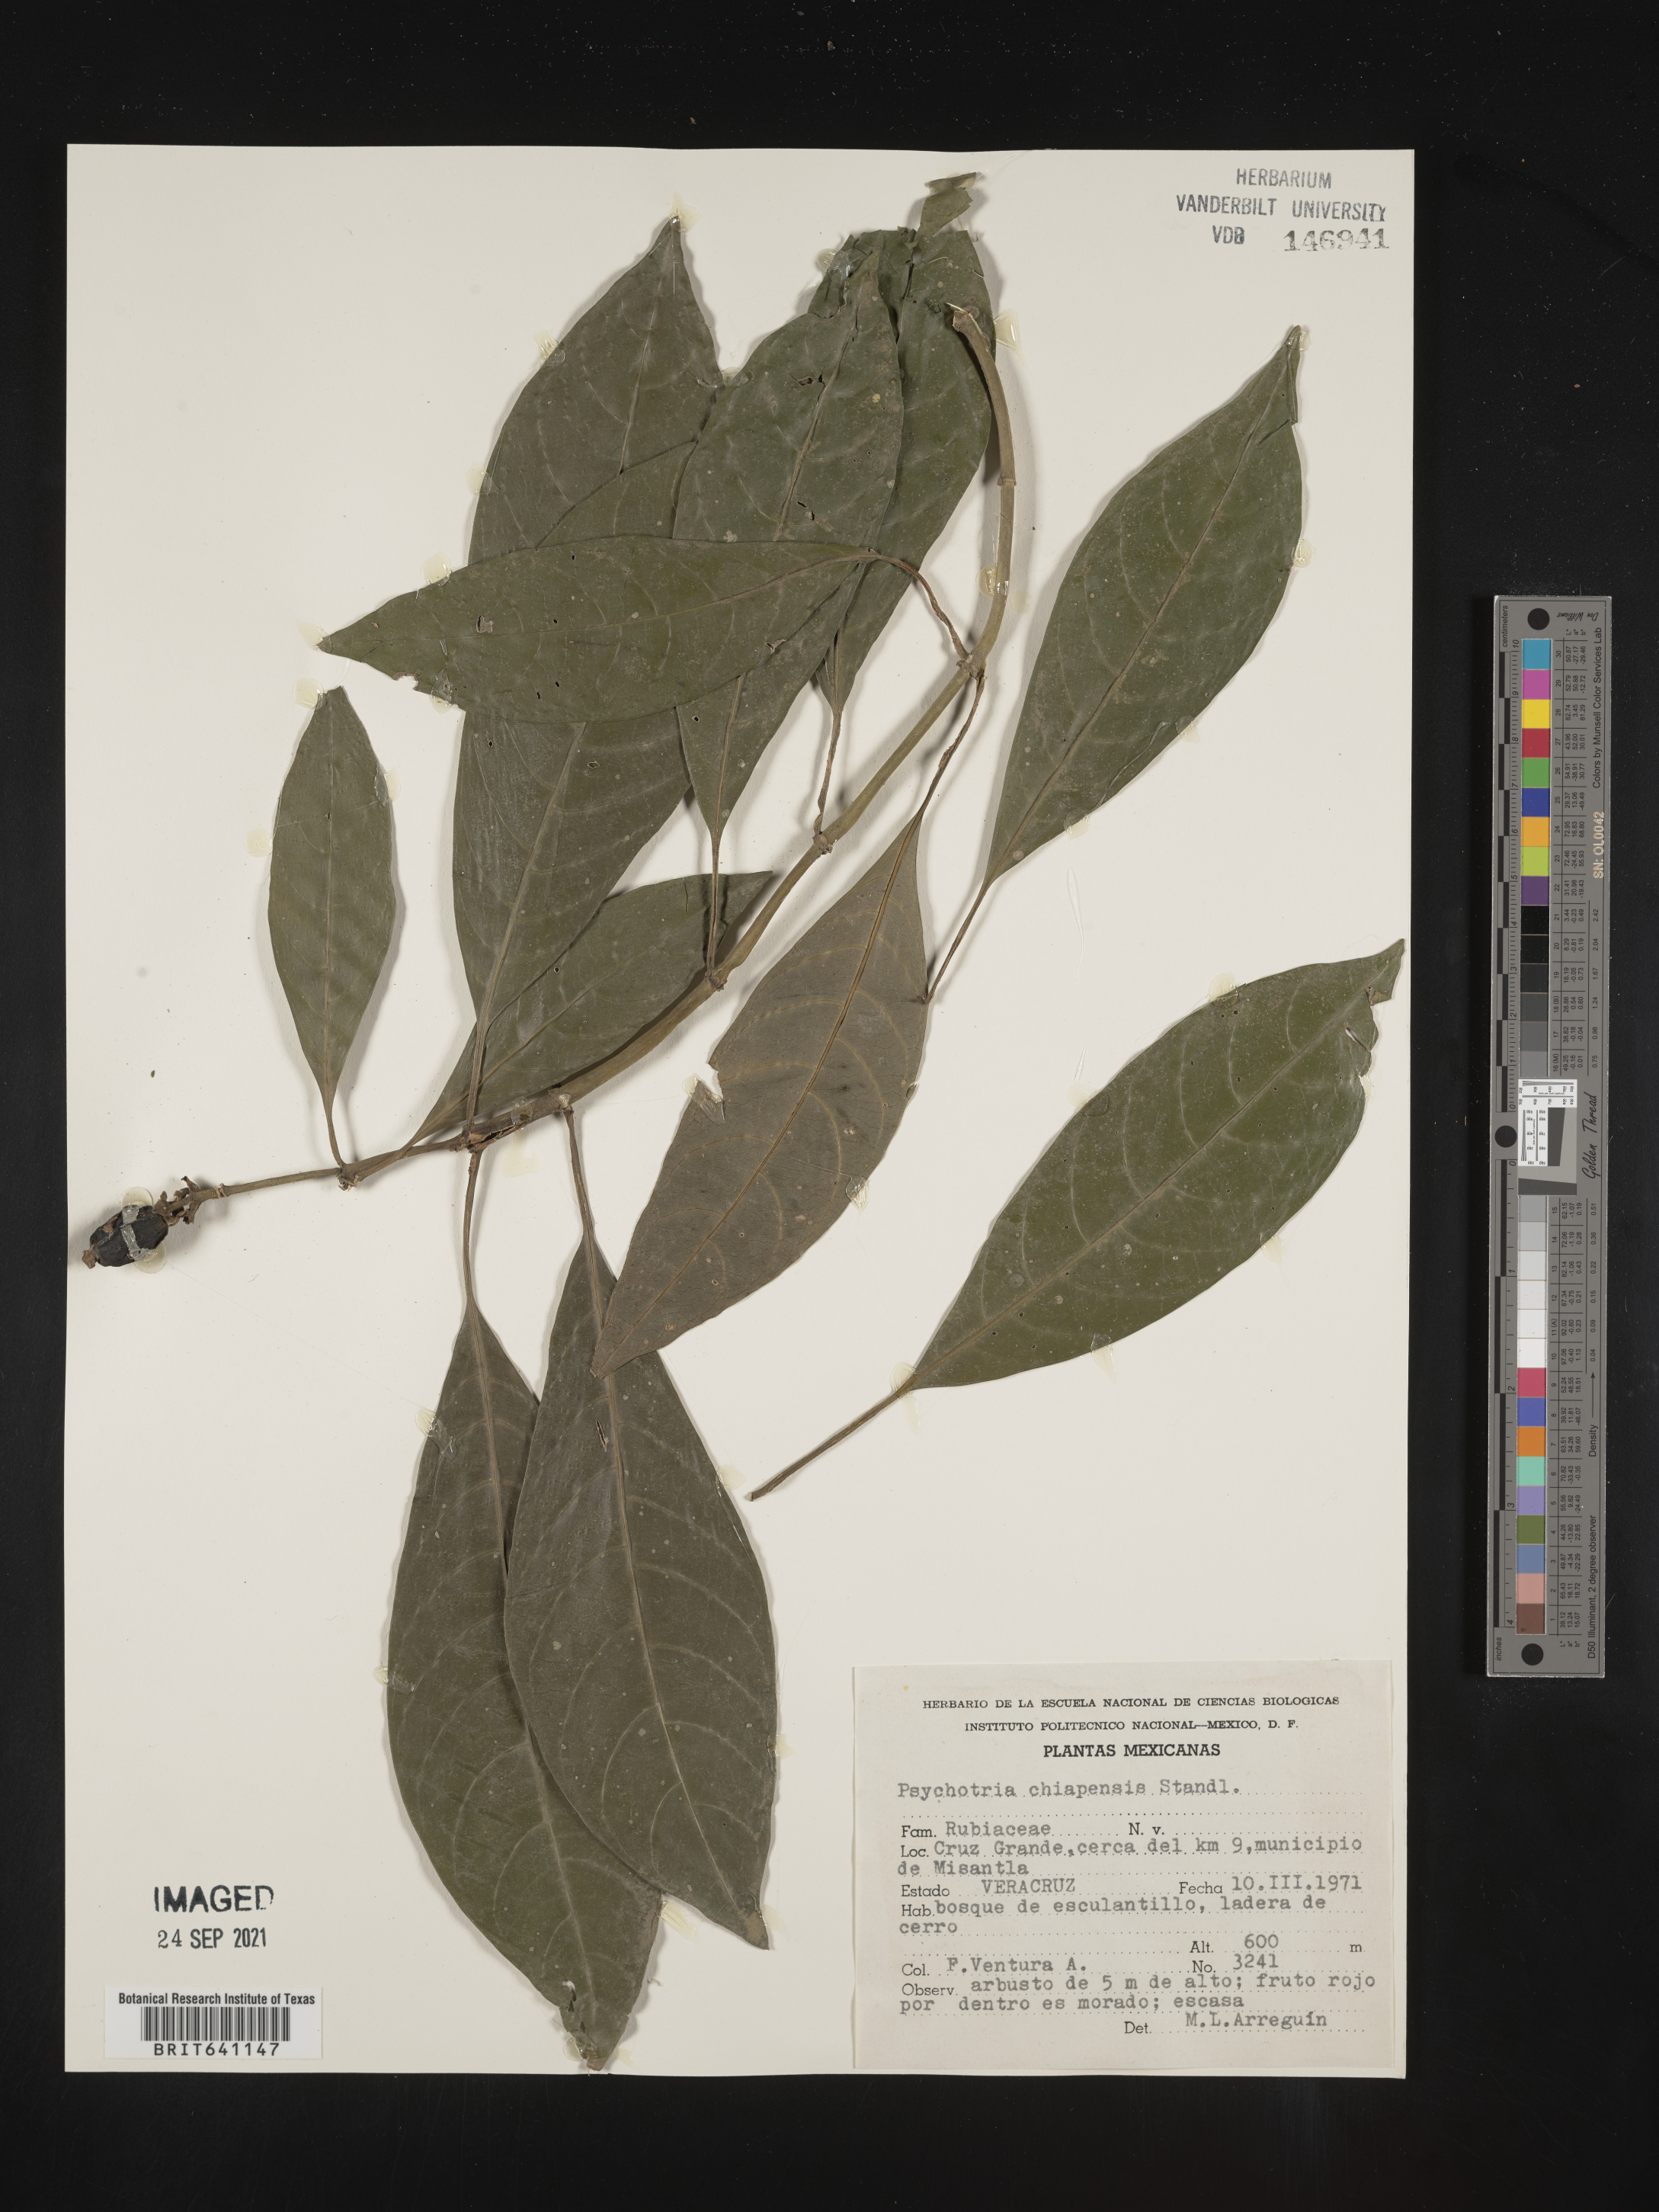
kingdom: Plantae
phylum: Tracheophyta
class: Magnoliopsida
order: Gentianales
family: Rubiaceae
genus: Psychotria
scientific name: Psychotria
